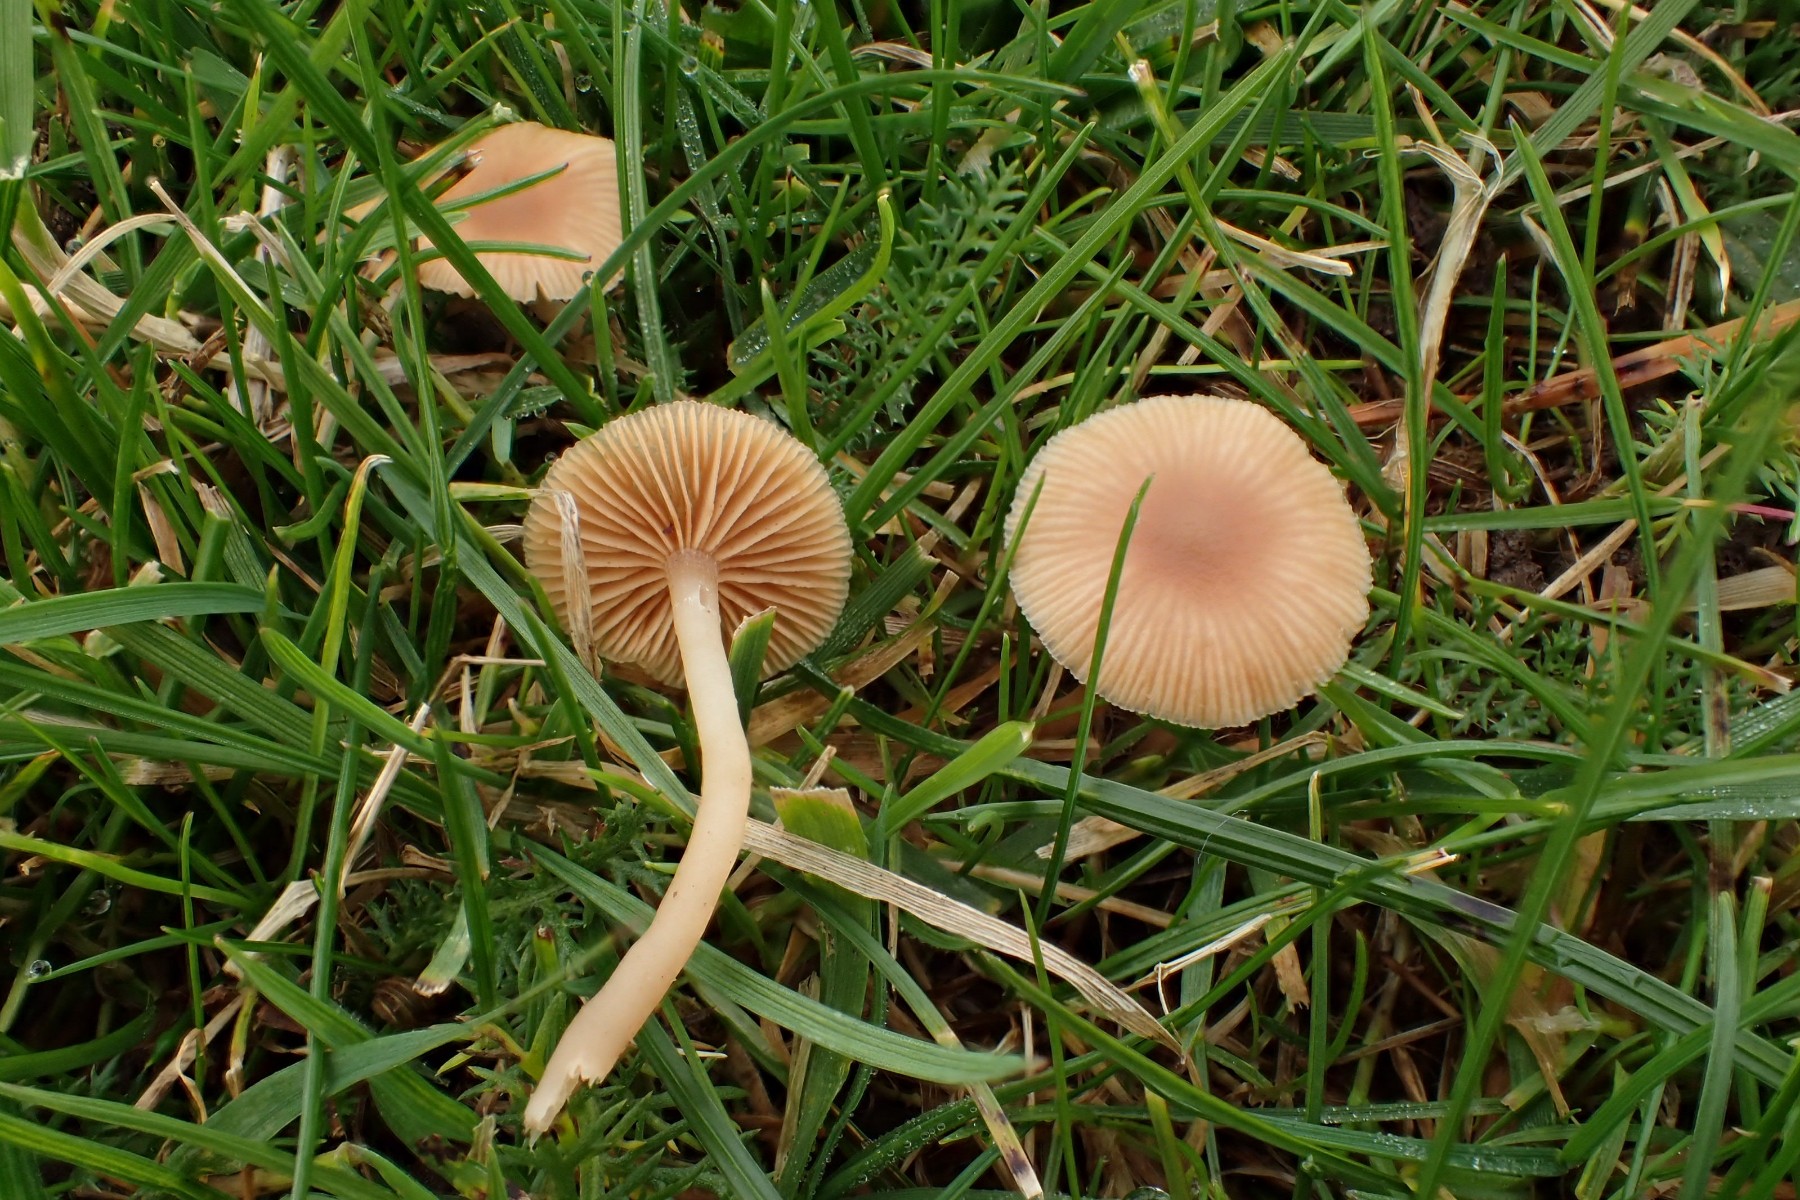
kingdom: Fungi
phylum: Basidiomycota
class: Agaricomycetes
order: Agaricales
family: Tubariaceae
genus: Tubaria
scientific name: Tubaria
